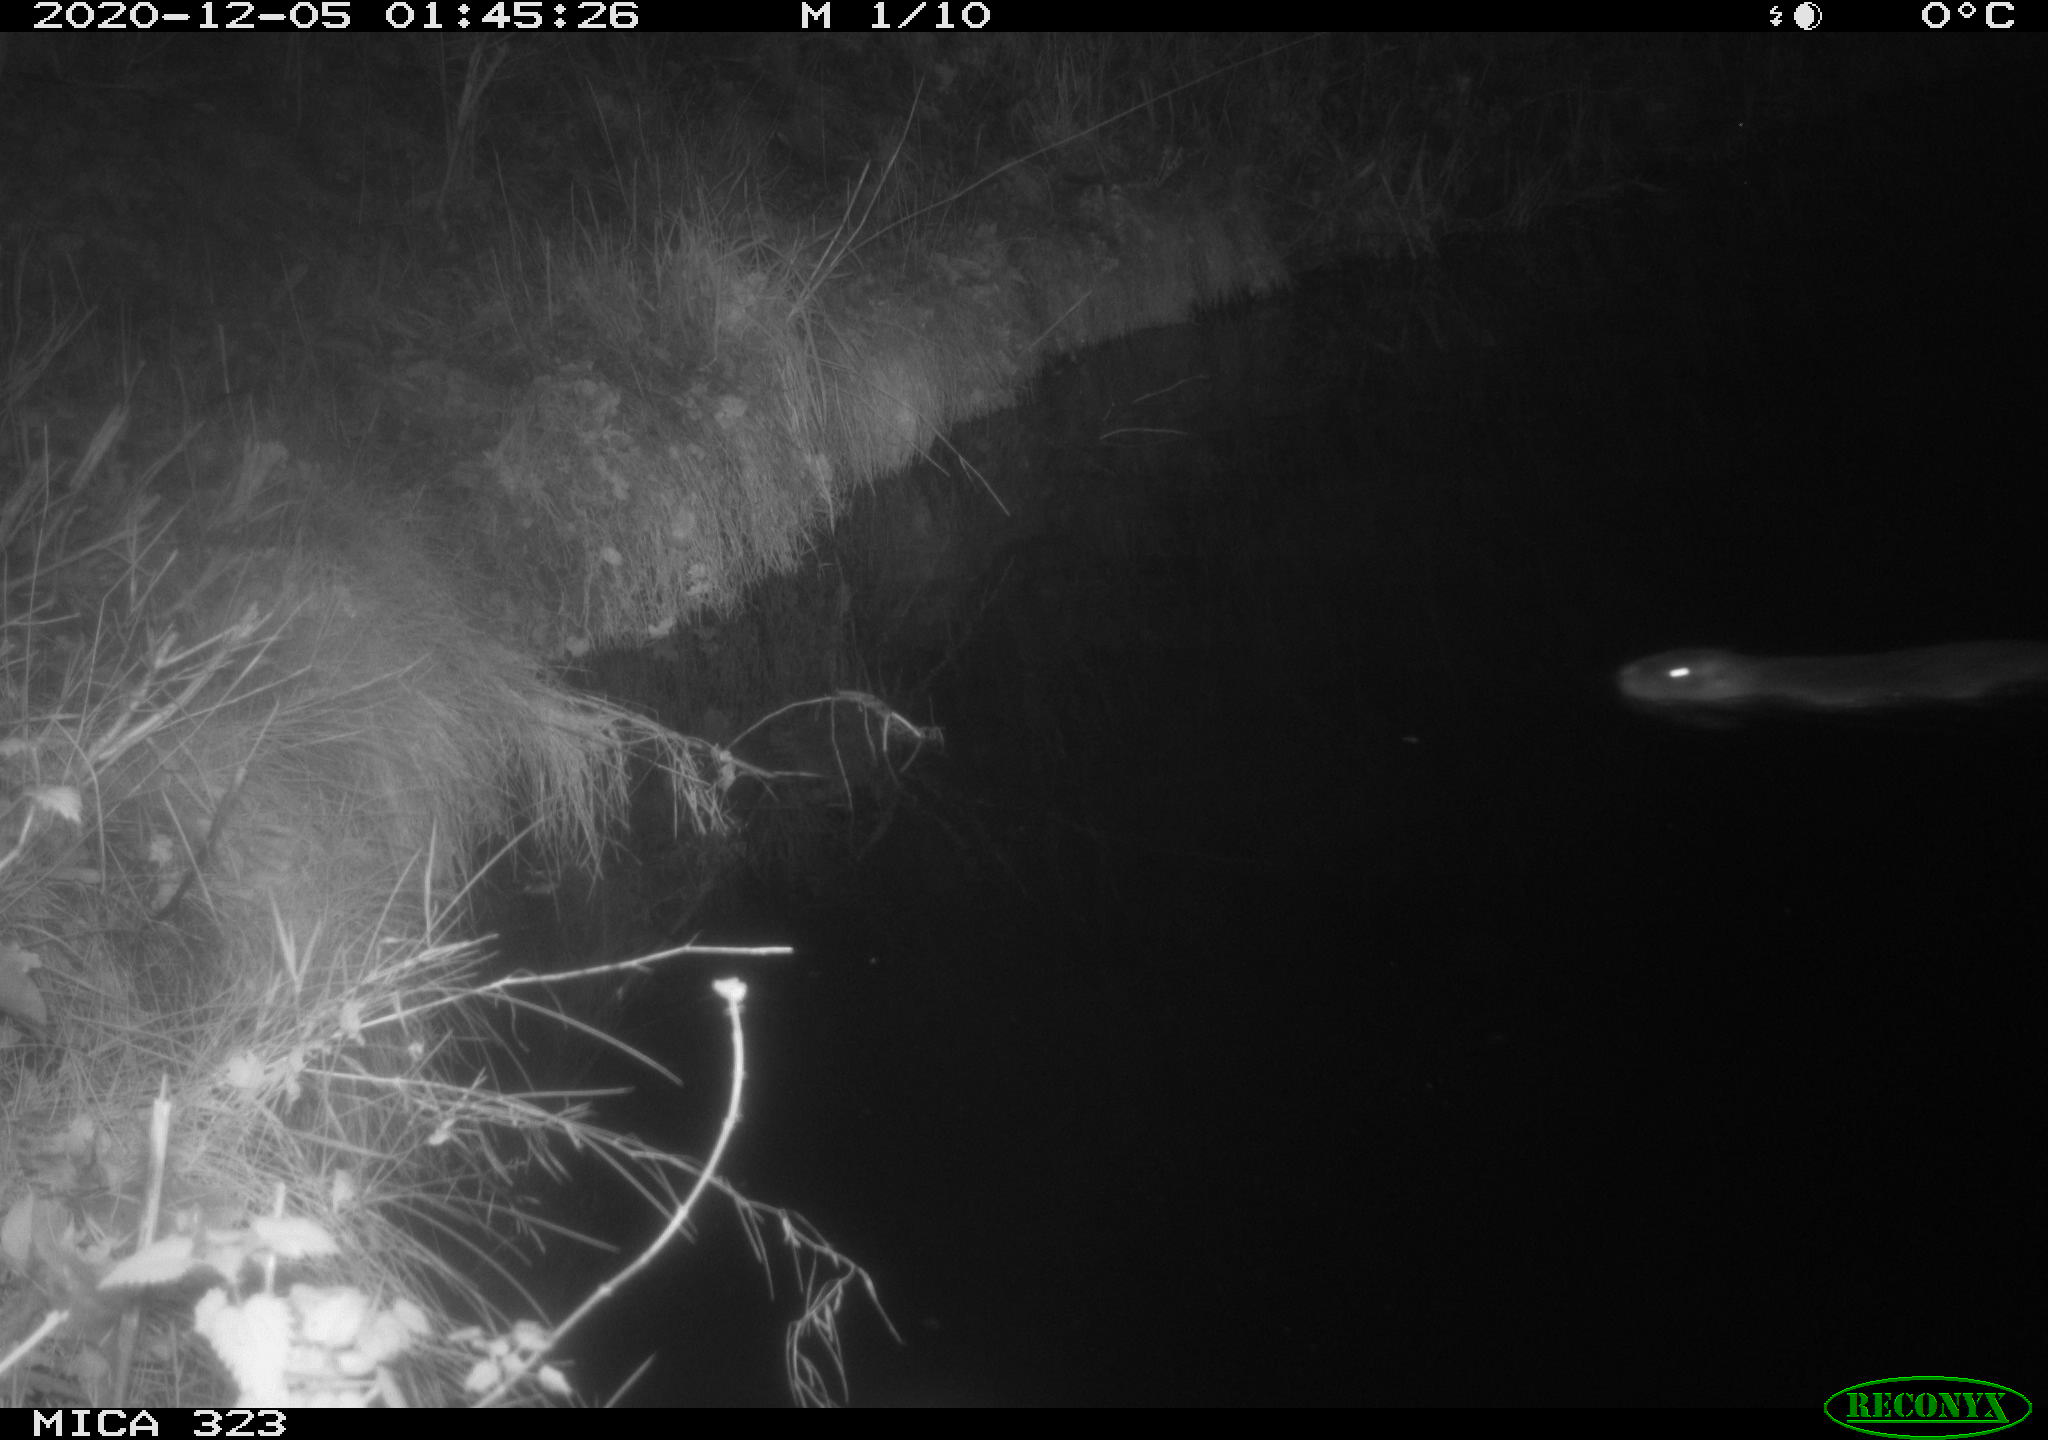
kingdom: Animalia
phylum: Chordata
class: Mammalia
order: Rodentia
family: Myocastoridae
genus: Myocastor
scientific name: Myocastor coypus
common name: Coypu
